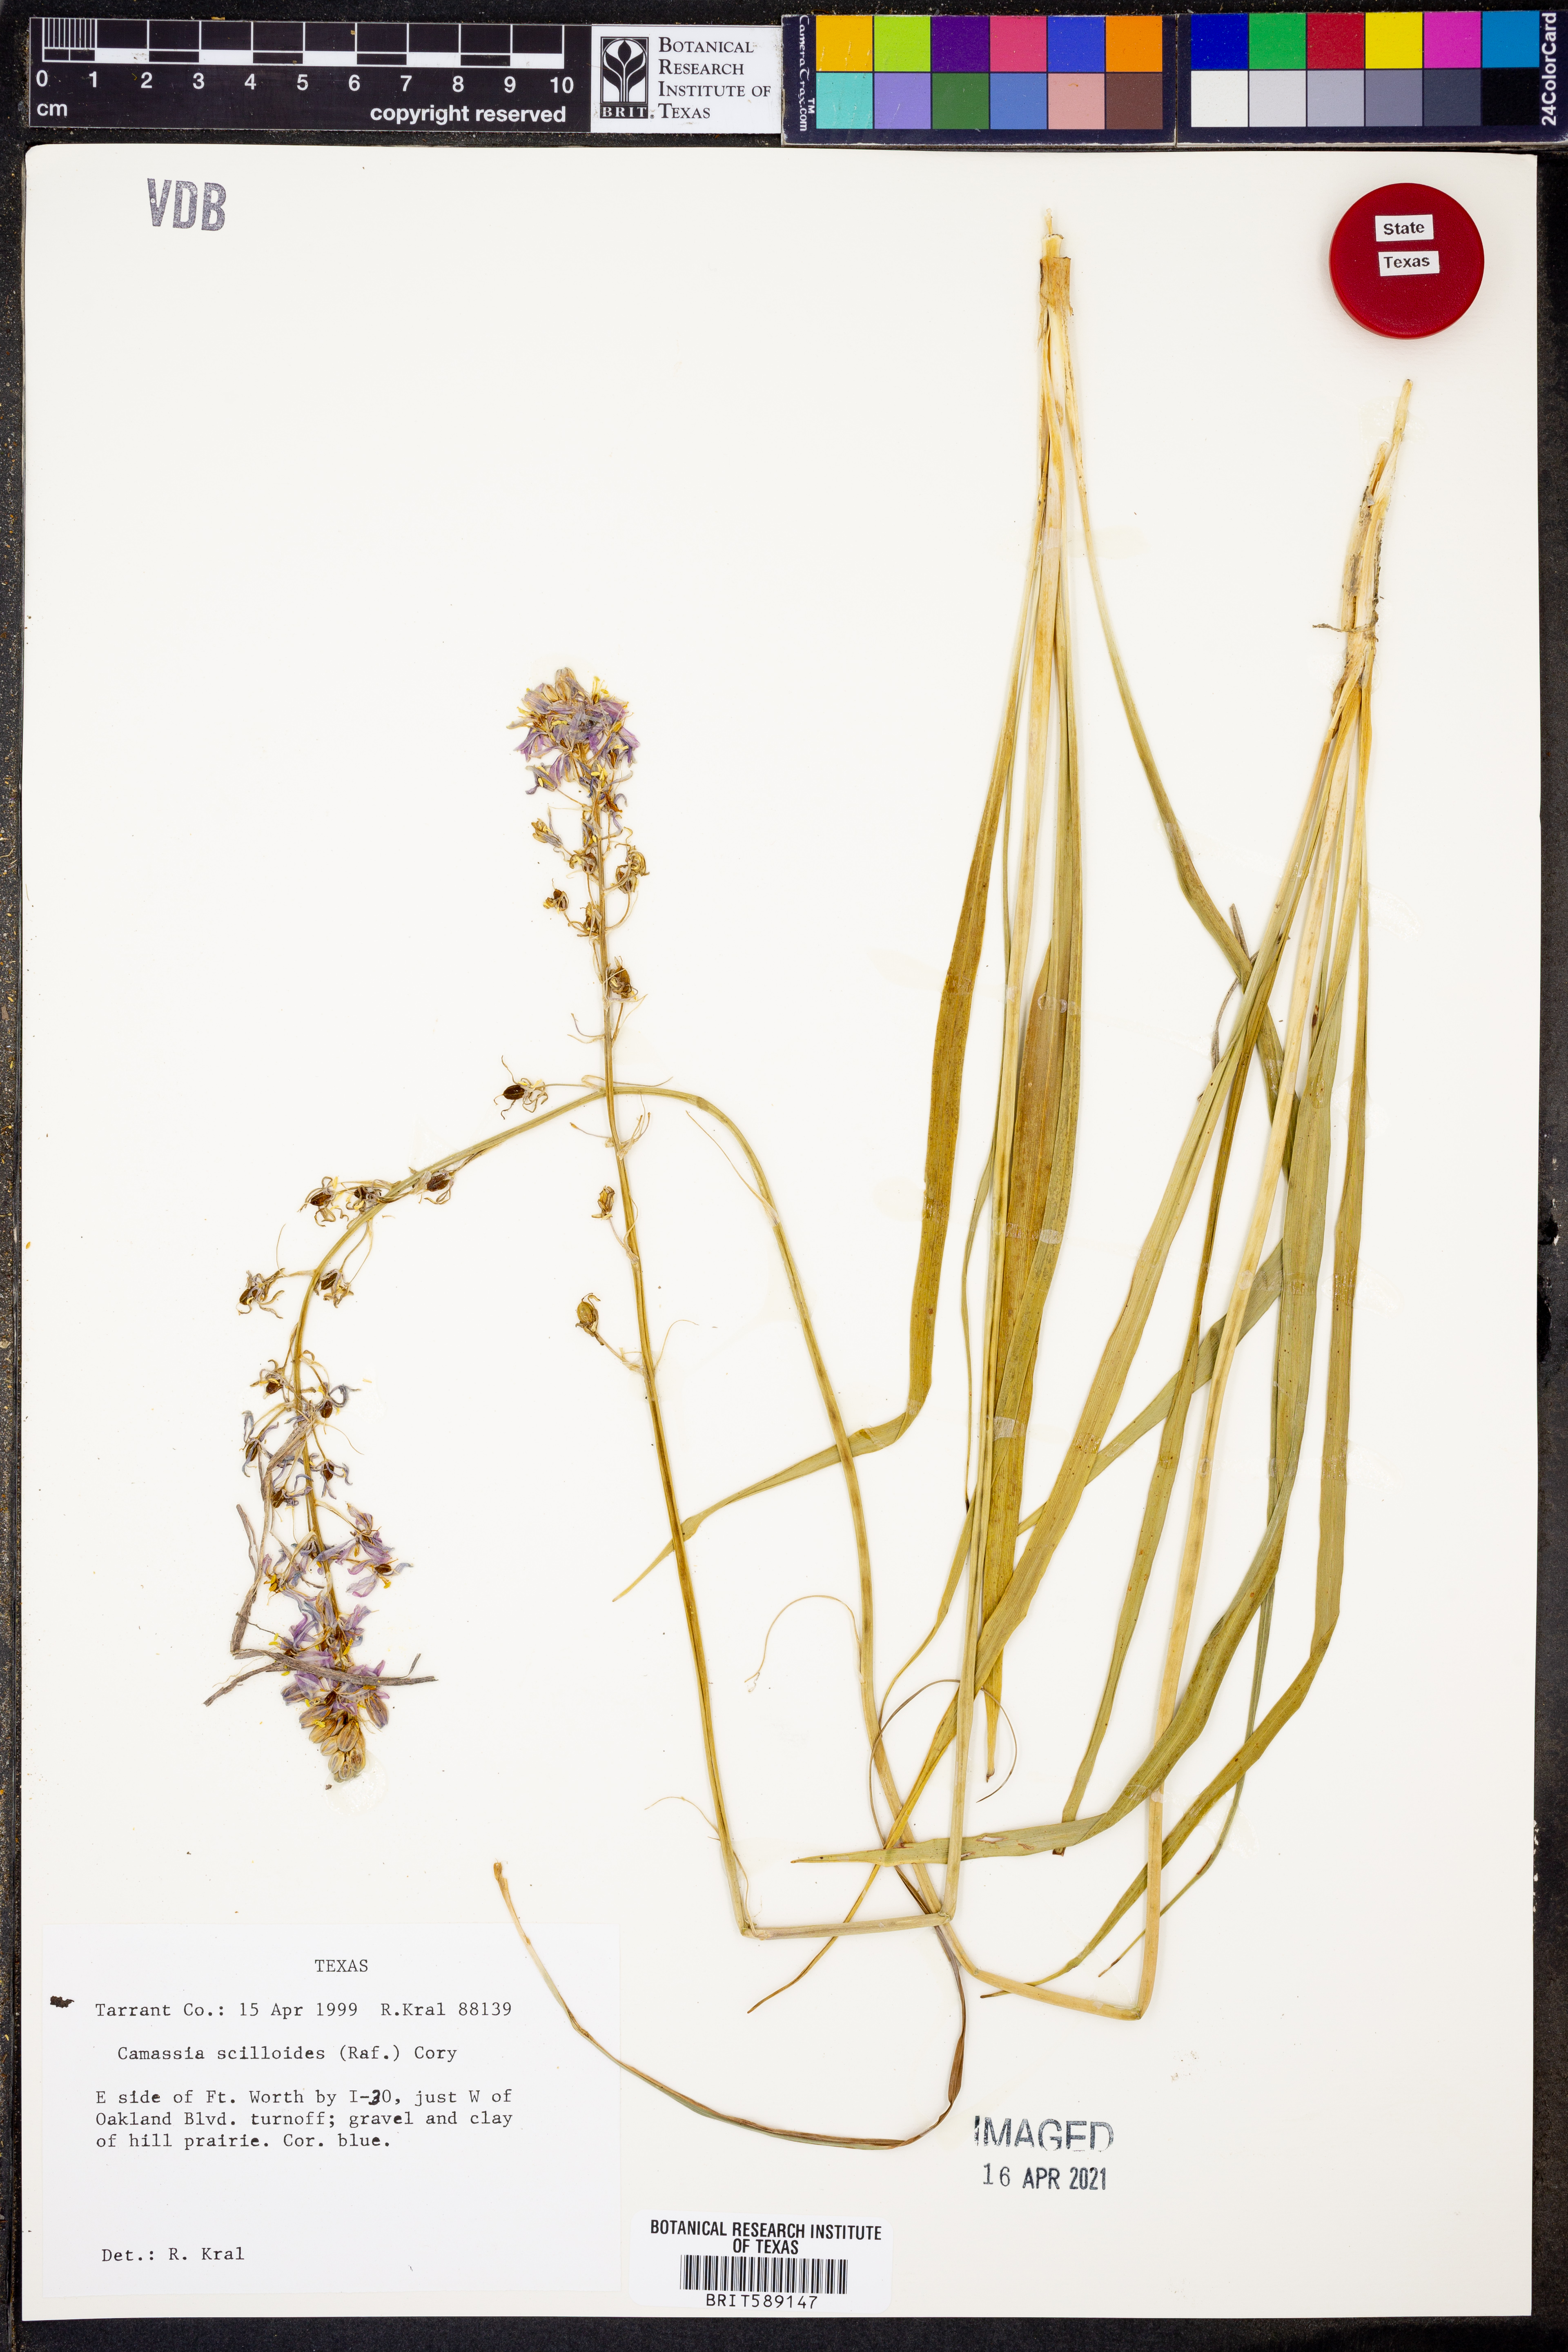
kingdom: Plantae
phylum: Tracheophyta
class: Liliopsida
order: Asparagales
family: Asparagaceae
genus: Camassia
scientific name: Camassia scilloides
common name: Wild hyacinth
